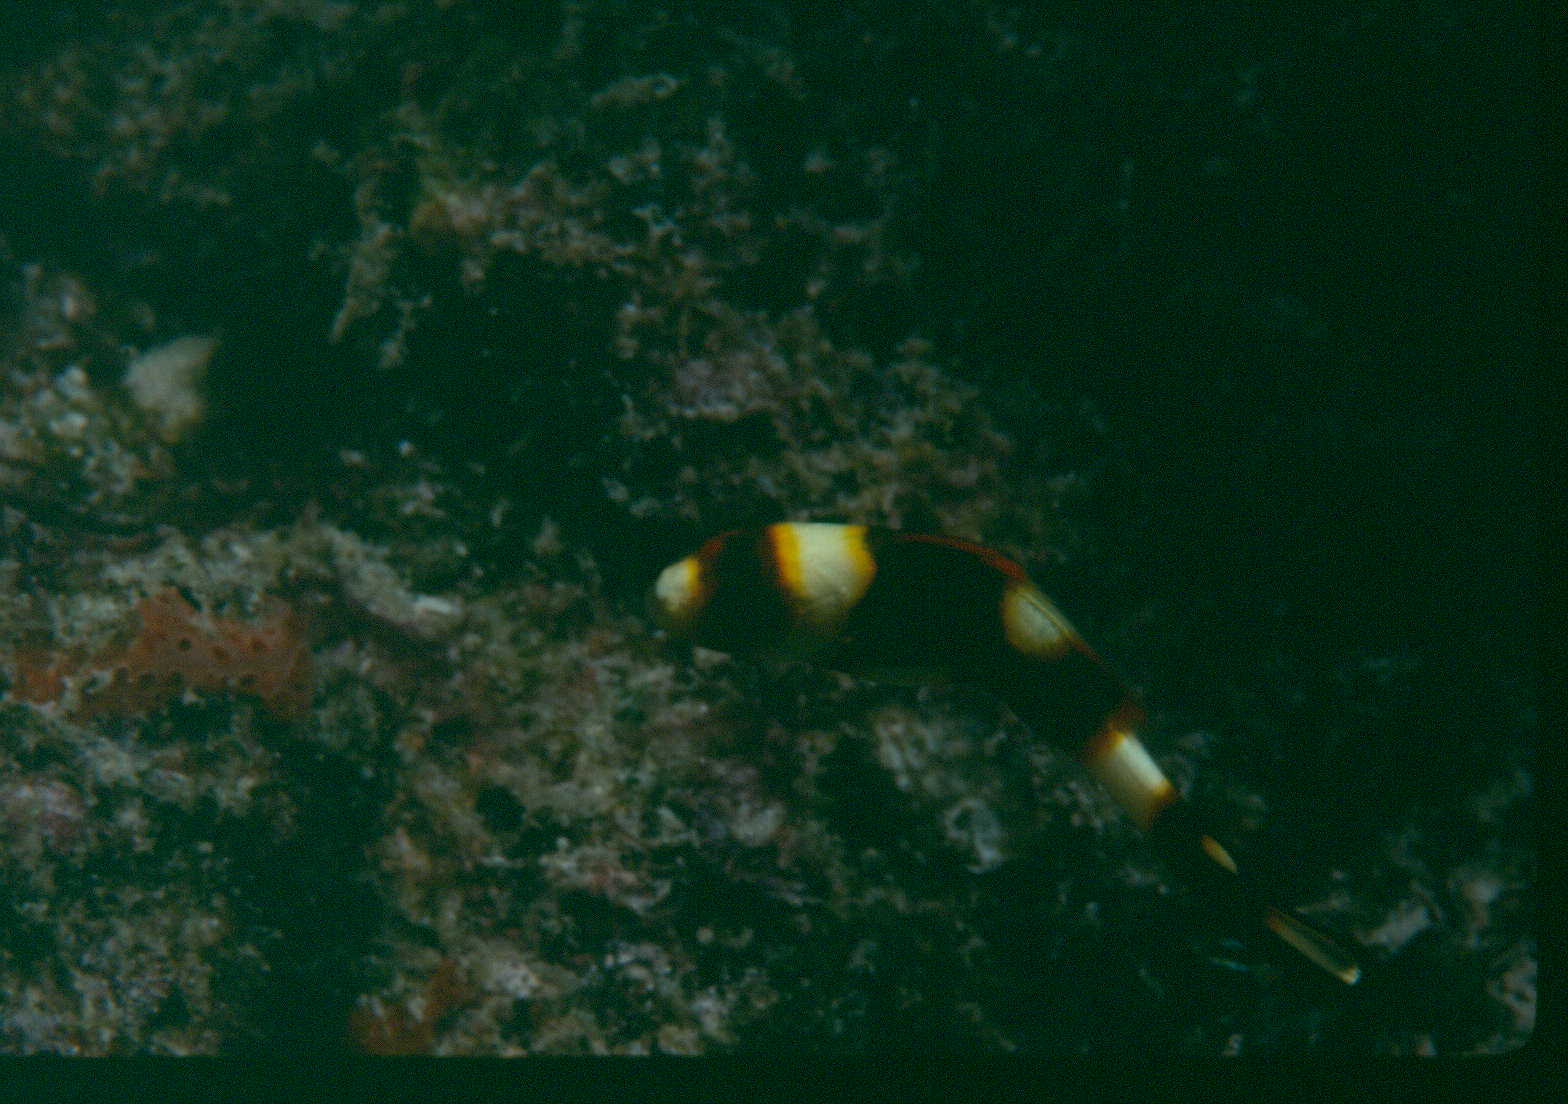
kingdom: Animalia
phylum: Chordata
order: Perciformes
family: Haemulidae
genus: Plectorhinchus
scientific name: Plectorhinchus vittatus
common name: Oriental sweetlips
